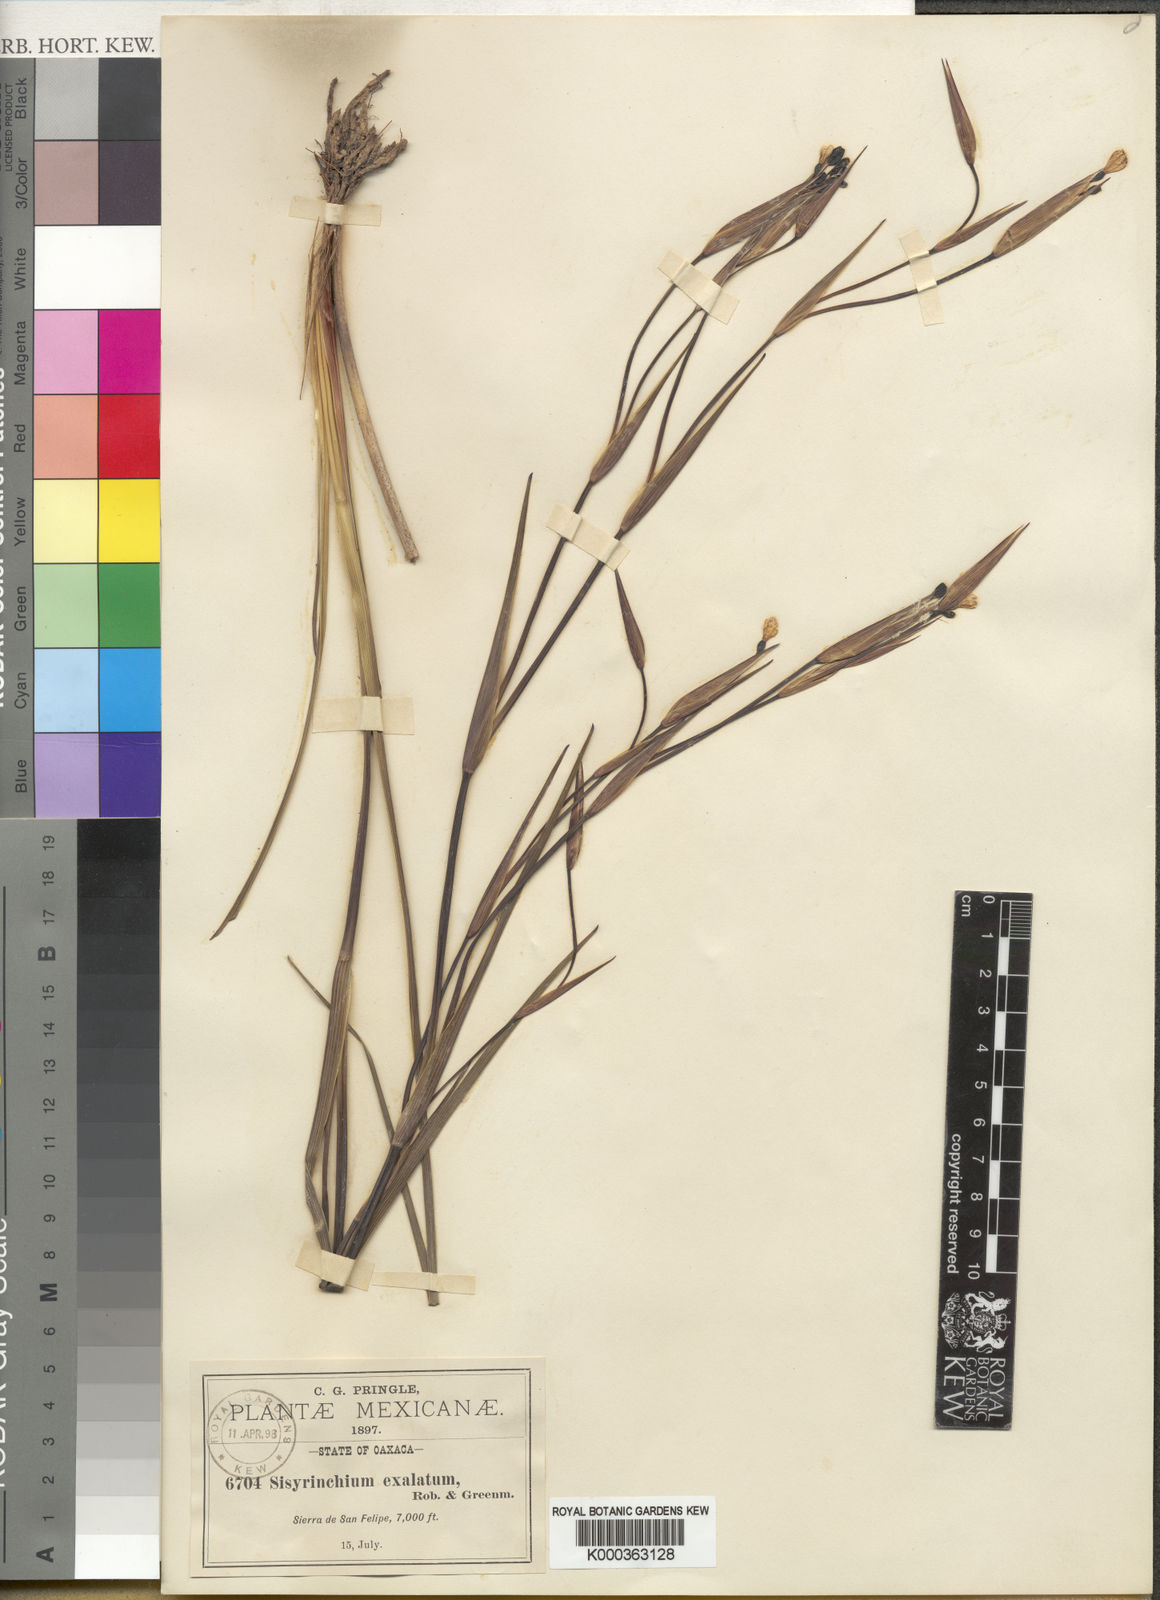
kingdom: Plantae
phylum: Tracheophyta
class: Liliopsida
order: Asparagales
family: Iridaceae
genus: Sisyrinchium
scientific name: Sisyrinchium exalatum
